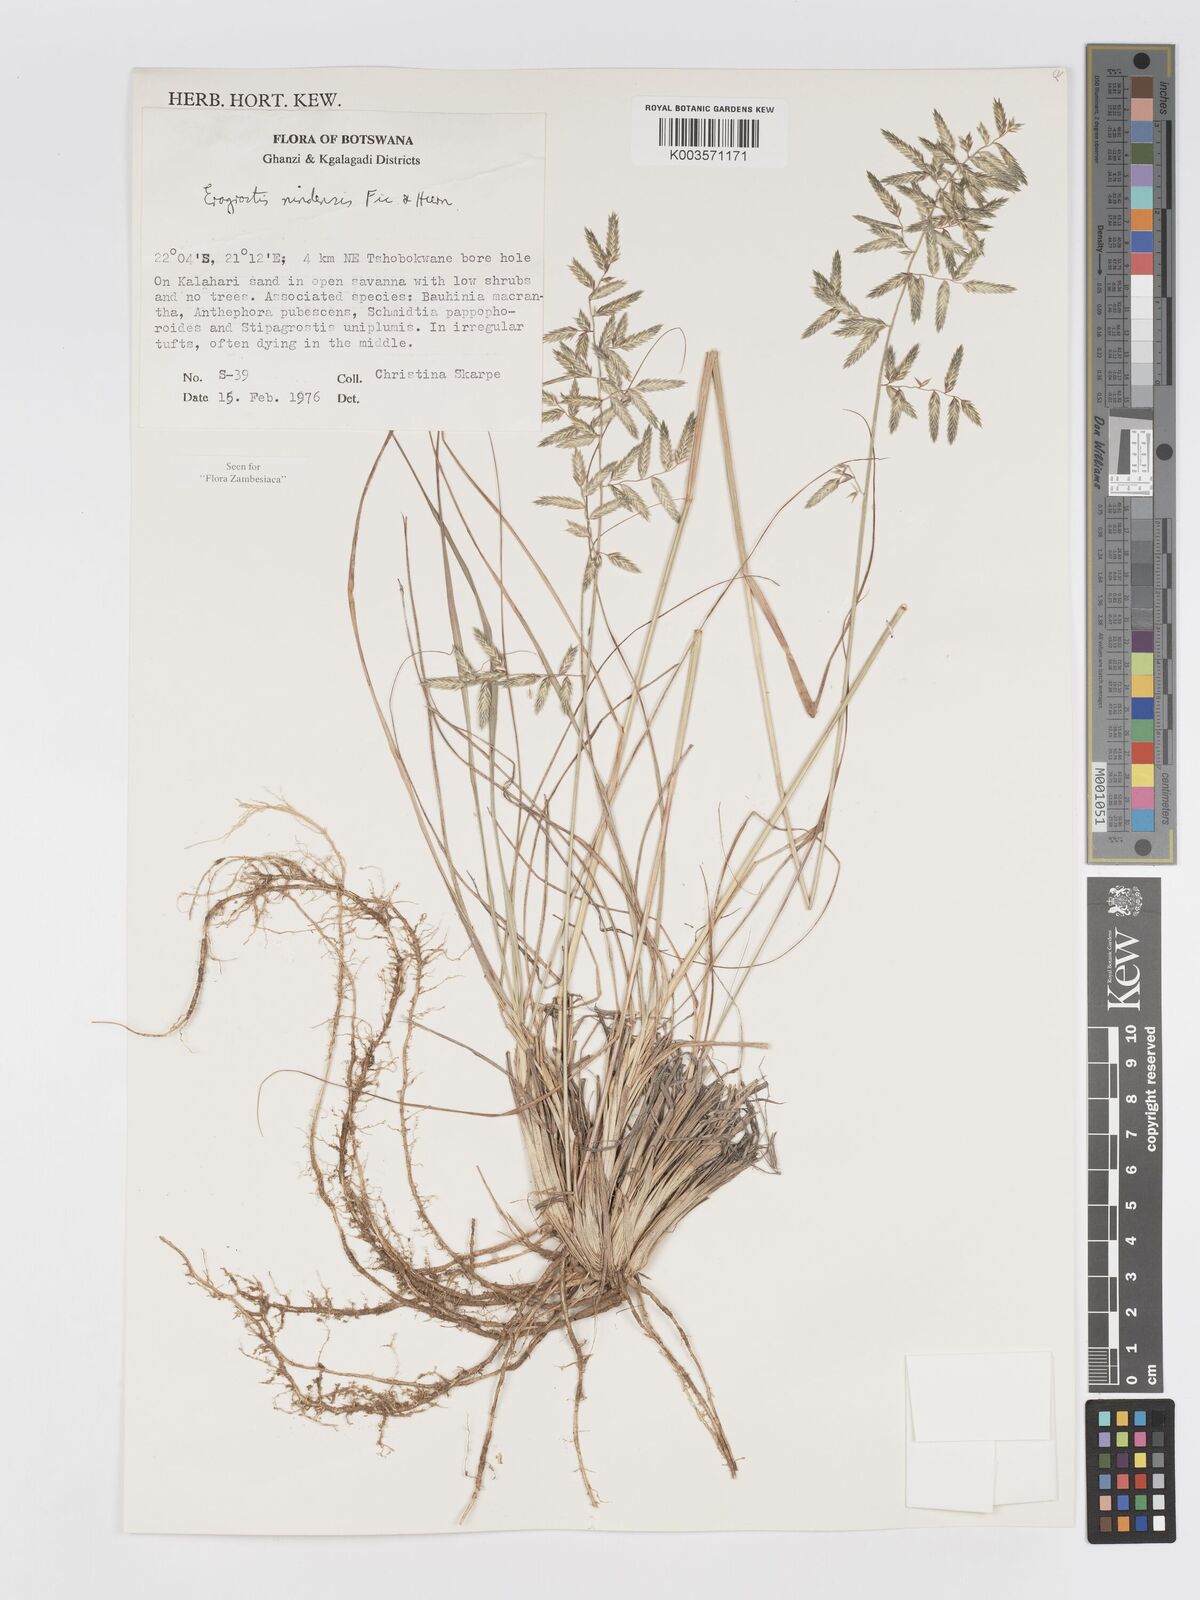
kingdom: Plantae
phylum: Tracheophyta
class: Liliopsida
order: Poales
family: Poaceae
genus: Eragrostis
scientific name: Eragrostis nindensis
